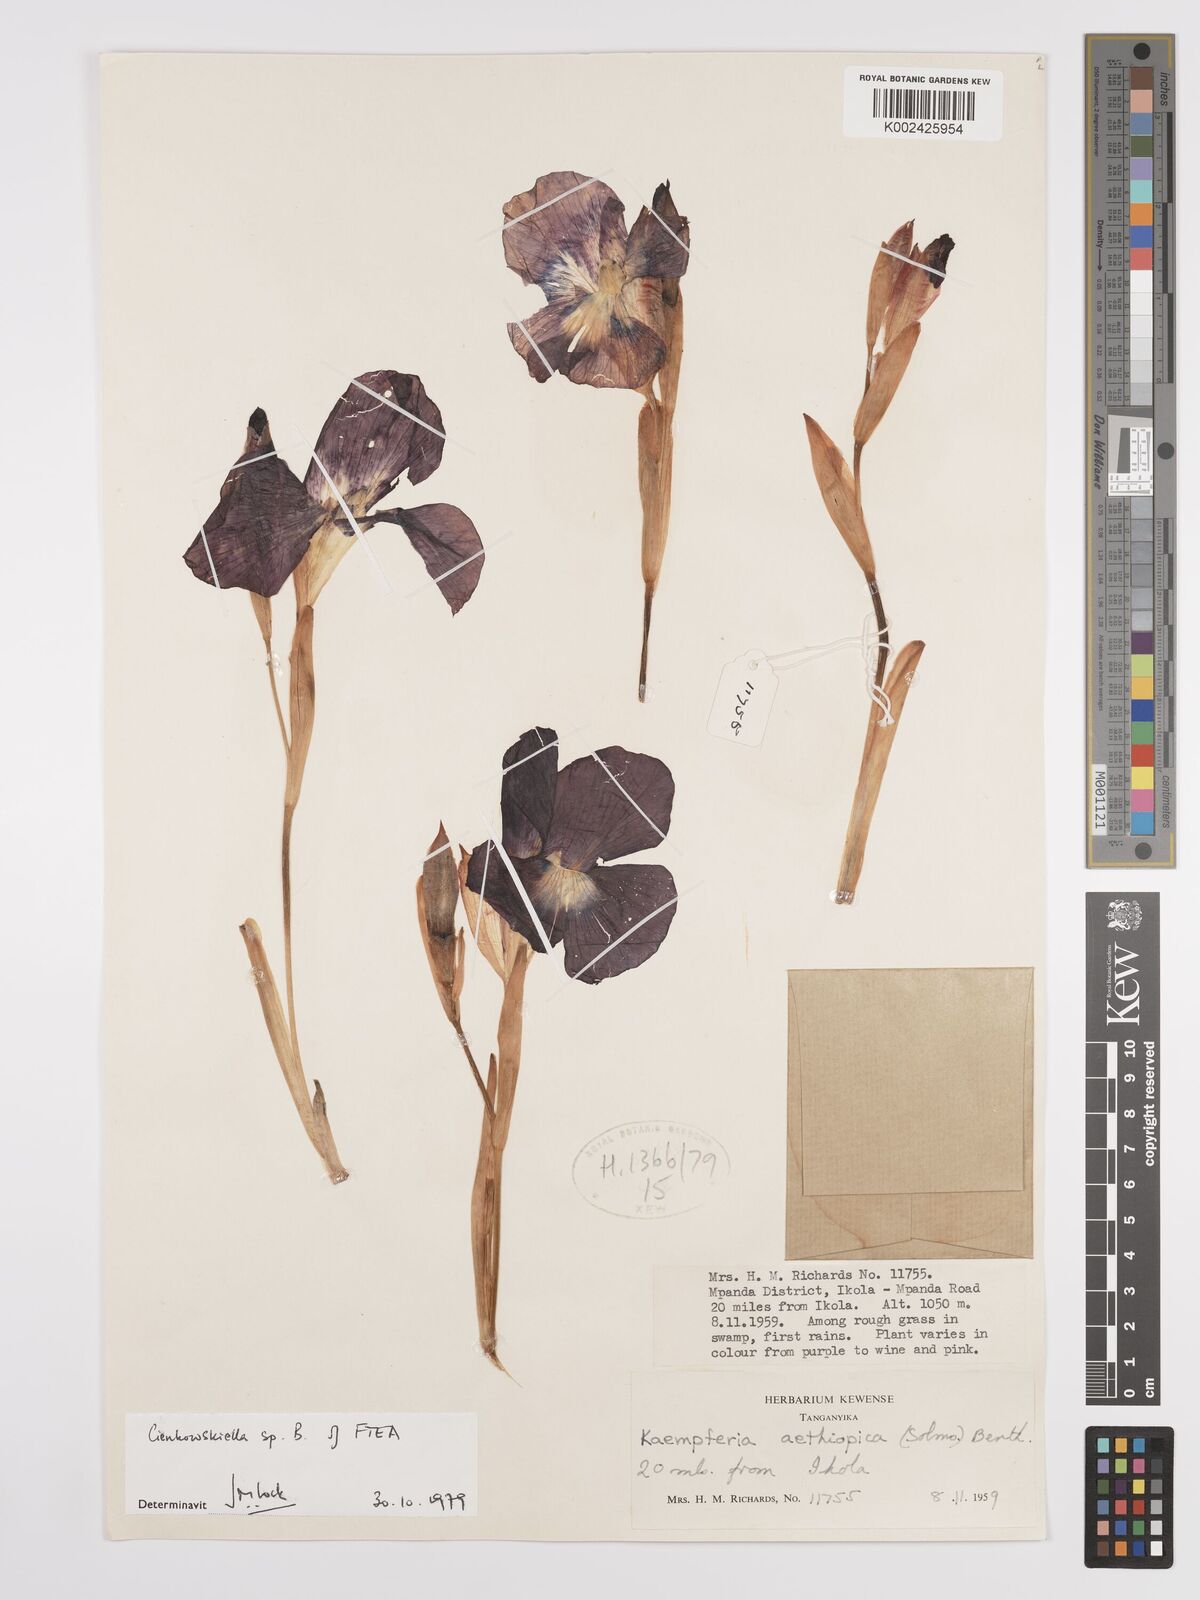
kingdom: Plantae
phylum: Tracheophyta
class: Liliopsida
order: Zingiberales
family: Zingiberaceae
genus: Siphonochilus
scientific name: Siphonochilus
